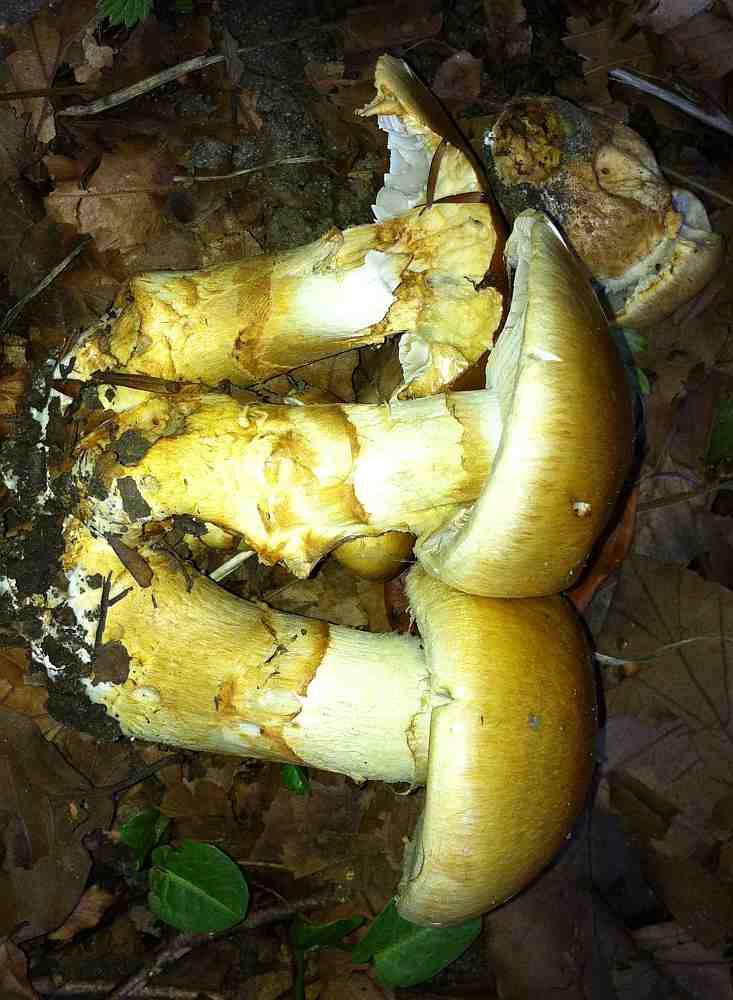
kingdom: Fungi
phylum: Basidiomycota
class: Agaricomycetes
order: Agaricales
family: Cortinariaceae
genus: Phlegmacium
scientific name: Phlegmacium triumphans
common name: gulbæltet slørhat
